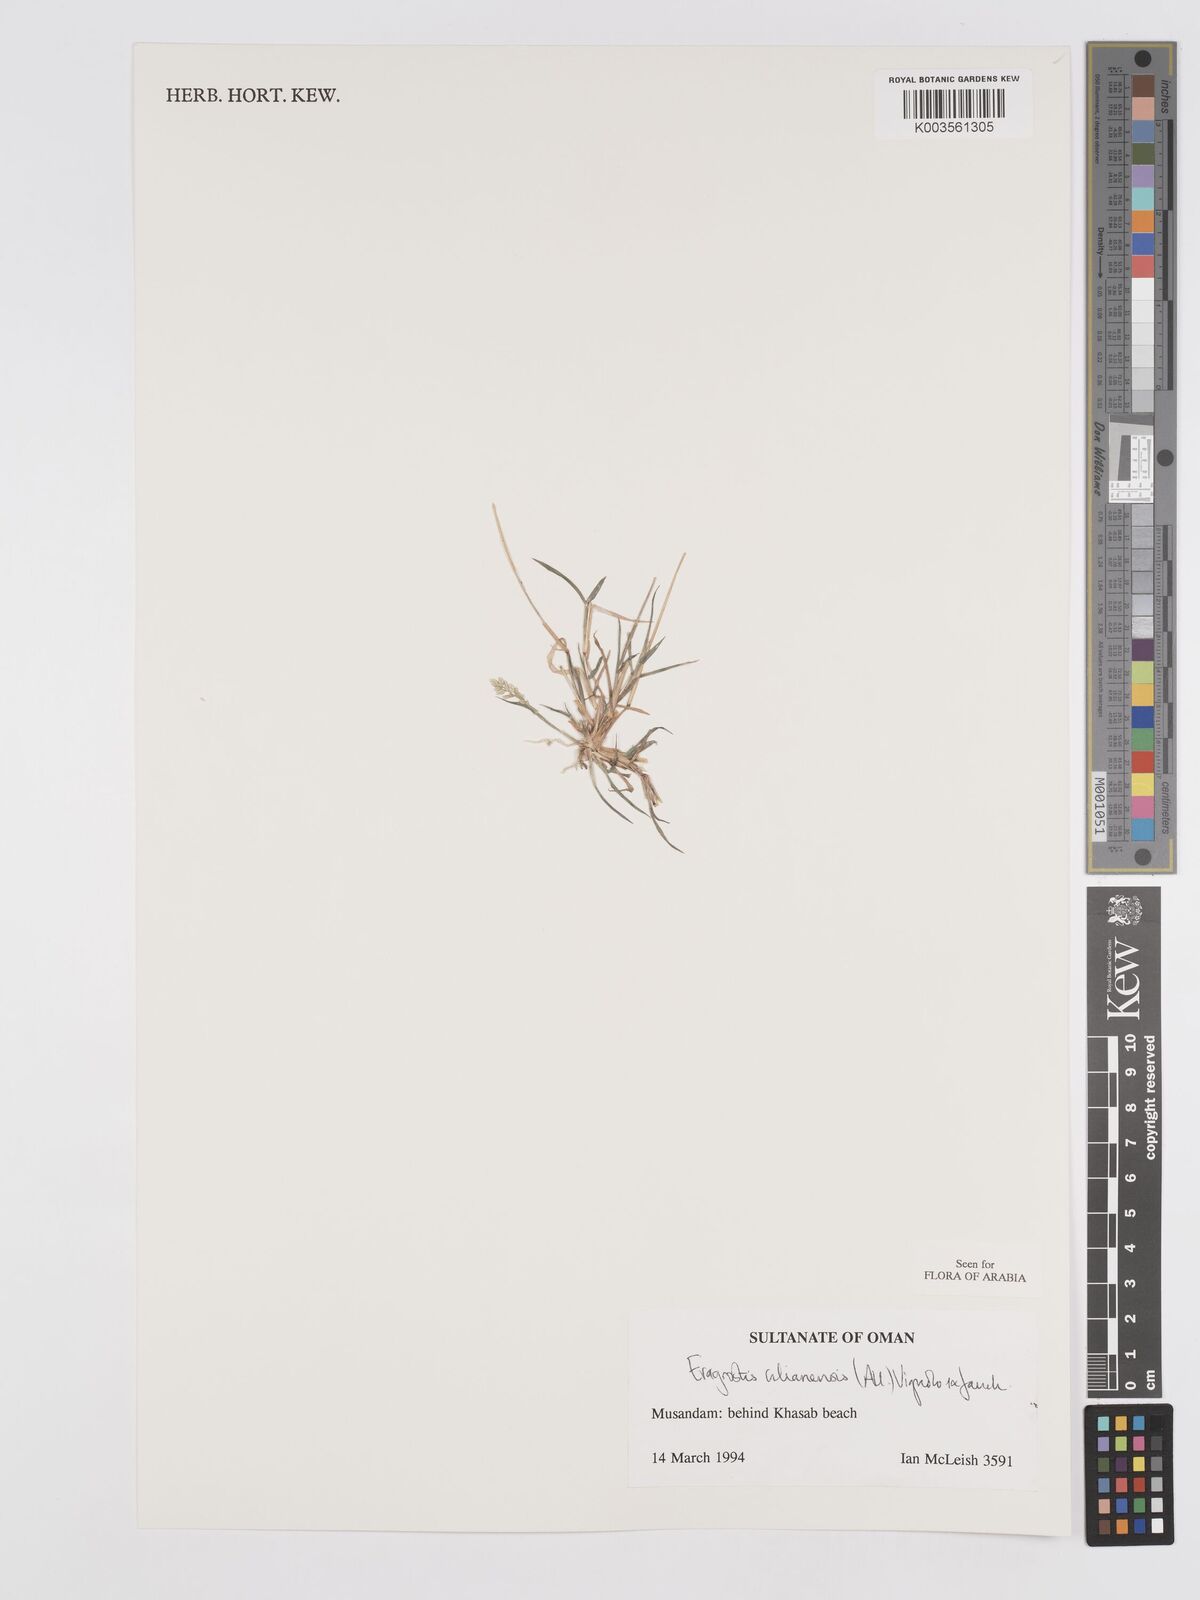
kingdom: Plantae
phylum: Tracheophyta
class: Liliopsida
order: Poales
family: Poaceae
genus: Eragrostis
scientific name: Eragrostis cilianensis
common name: Stinkgrass
